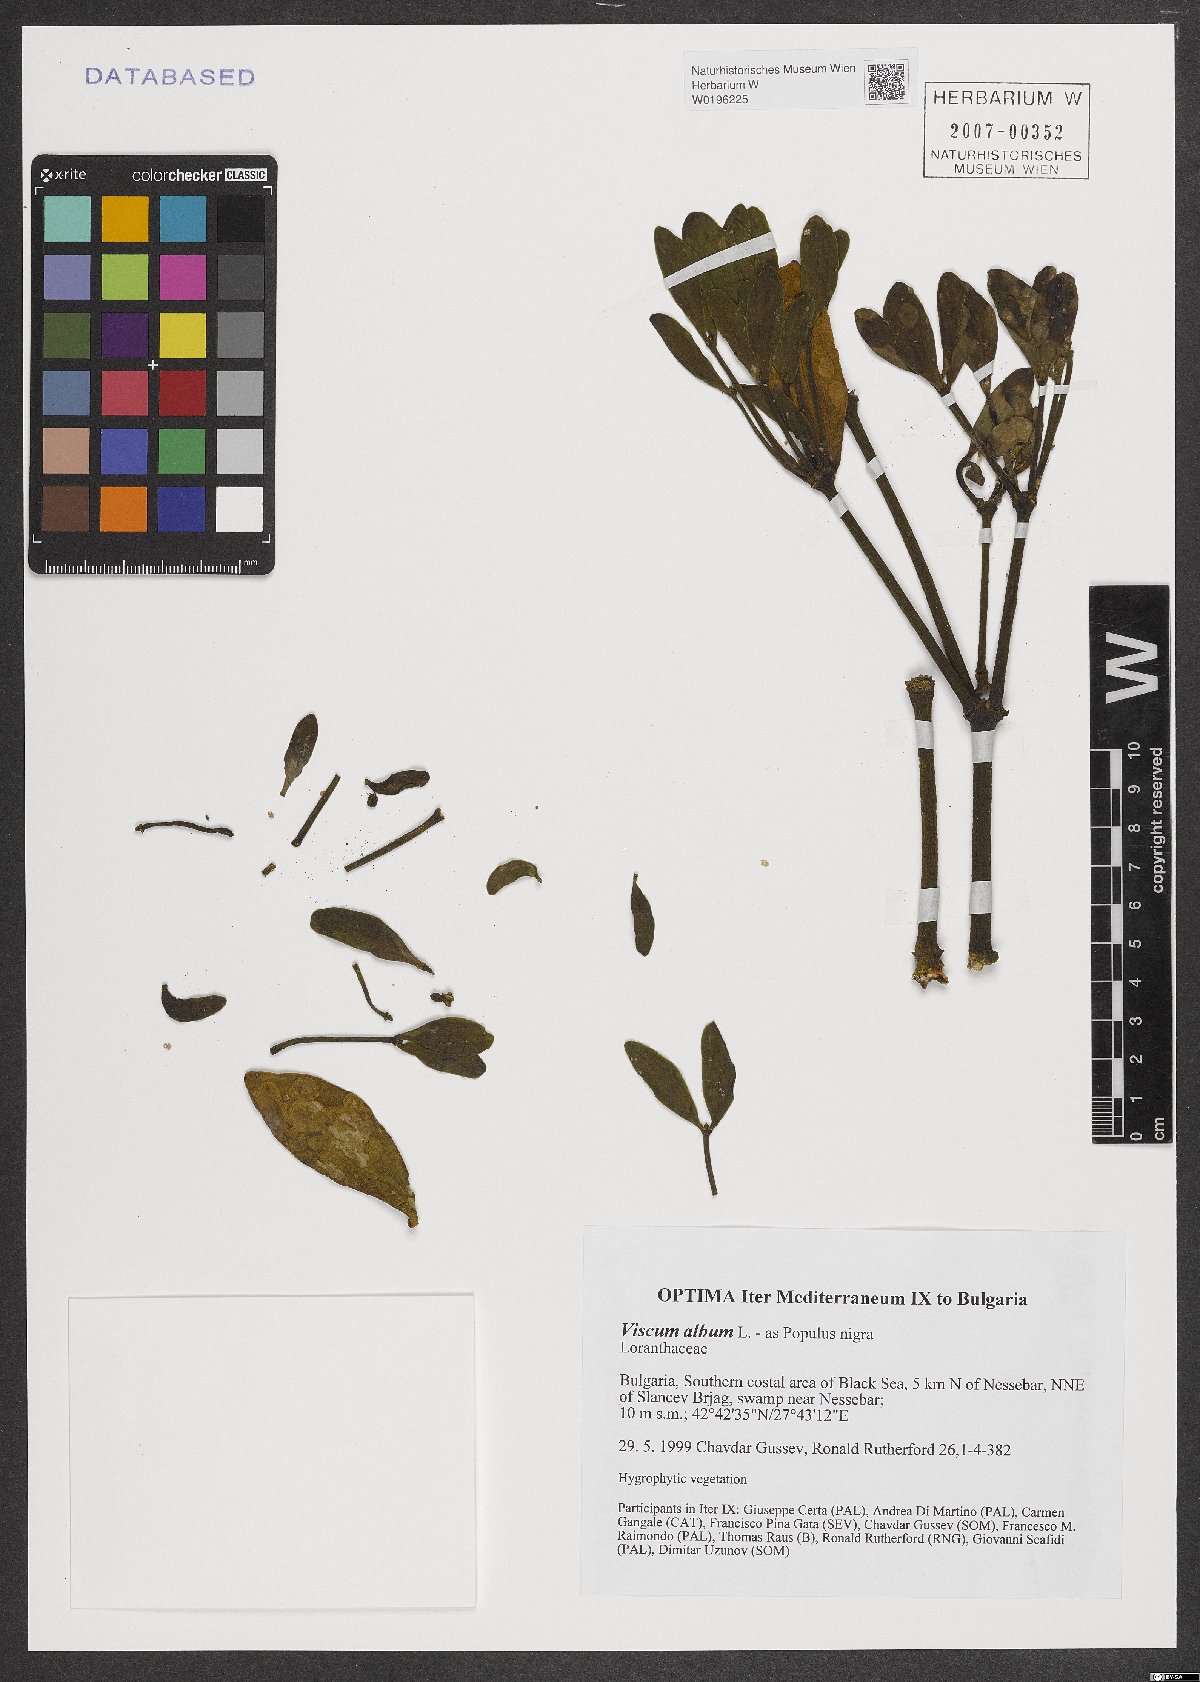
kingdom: Plantae
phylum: Tracheophyta
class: Magnoliopsida
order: Santalales
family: Viscaceae
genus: Viscum
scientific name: Viscum album
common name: Mistletoe
